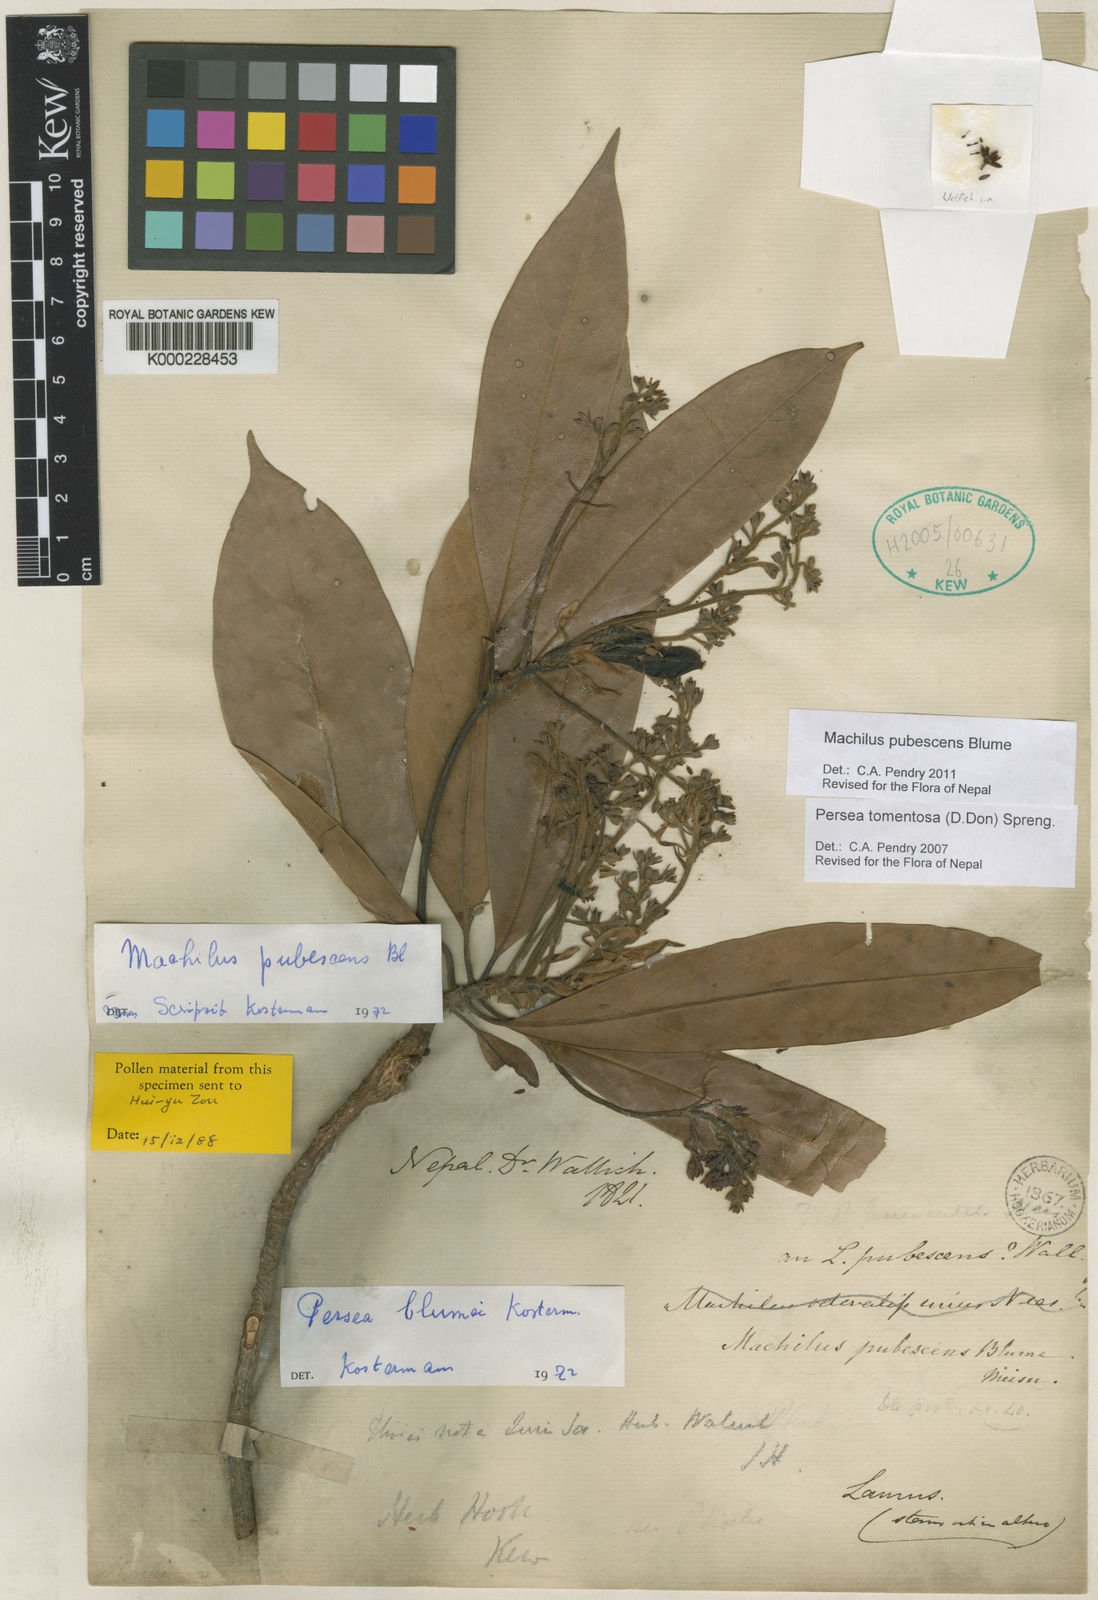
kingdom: Plantae
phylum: Tracheophyta
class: Magnoliopsida
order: Laurales
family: Lauraceae
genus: Machilus
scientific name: Machilus pubescens
